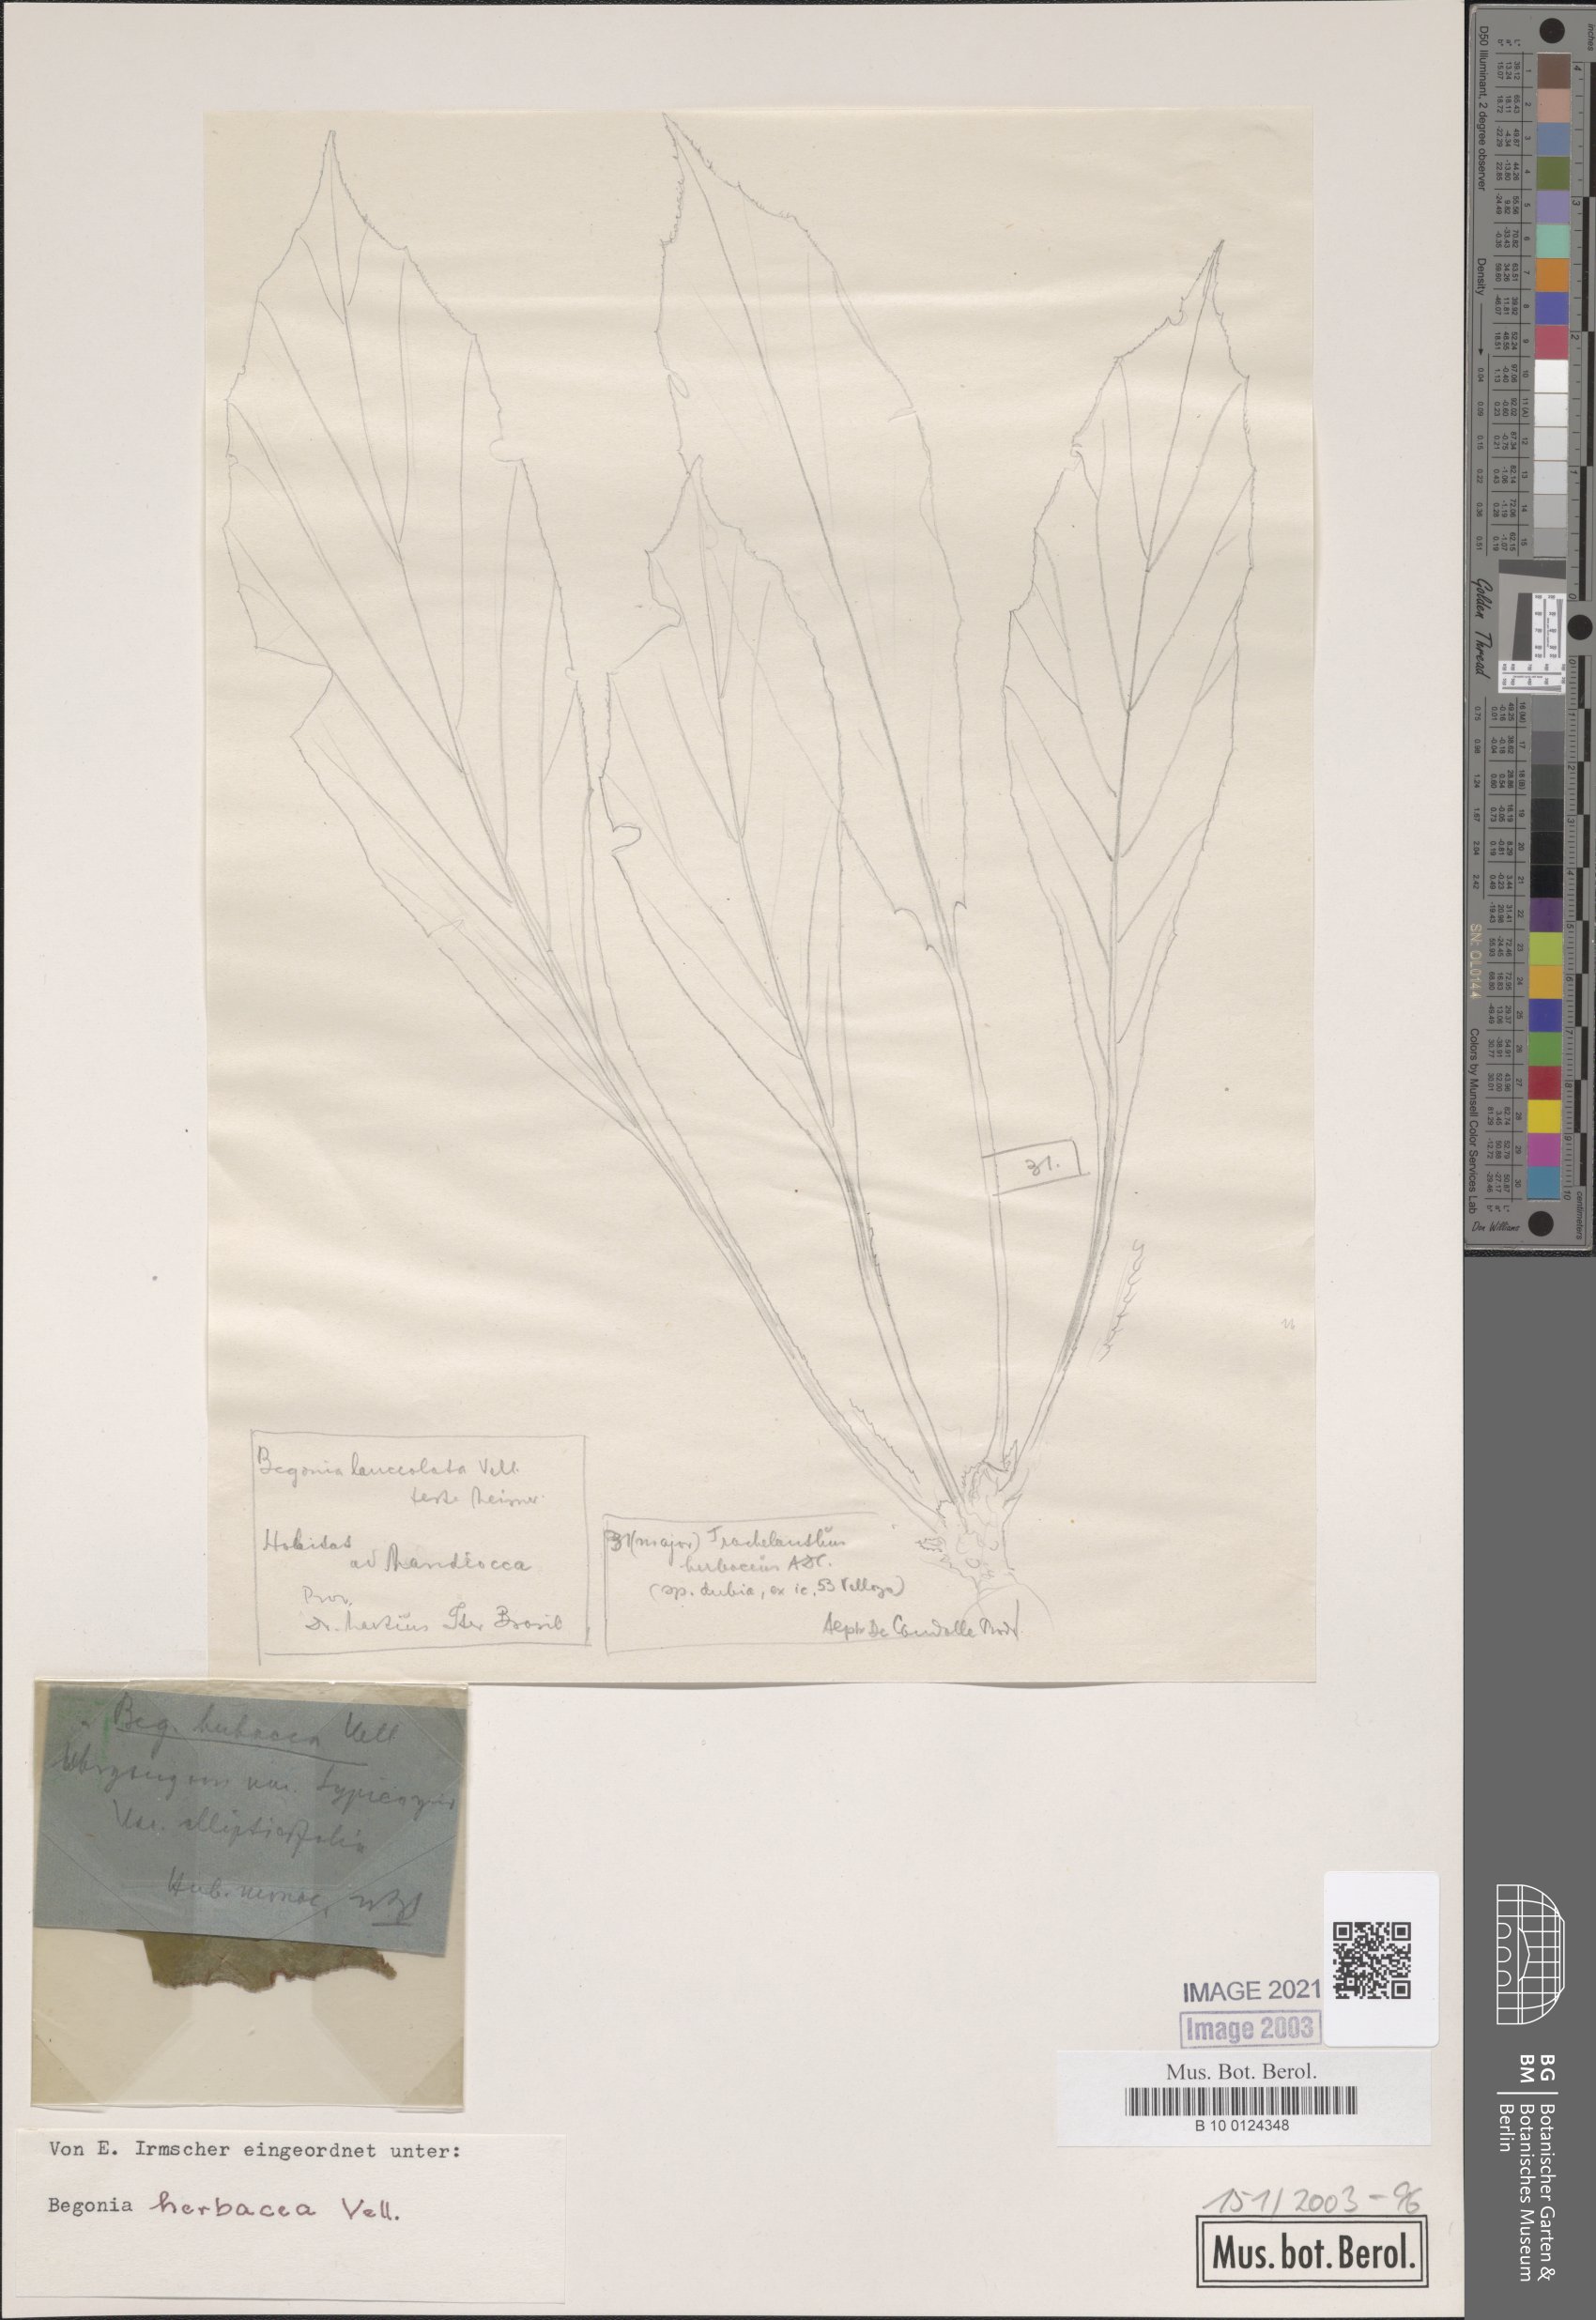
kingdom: Plantae
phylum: Tracheophyta
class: Magnoliopsida
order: Cucurbitales
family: Begoniaceae
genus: Begonia
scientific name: Begonia herbacea
